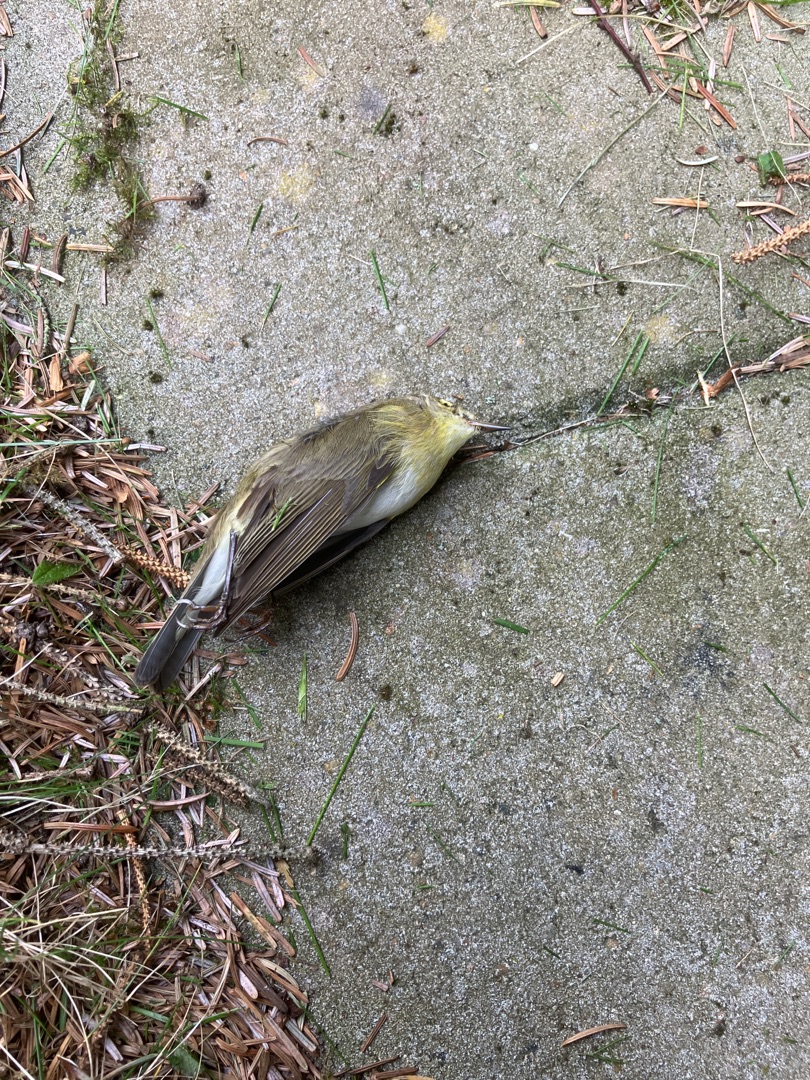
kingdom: Animalia
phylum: Chordata
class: Aves
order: Passeriformes
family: Phylloscopidae
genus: Phylloscopus
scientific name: Phylloscopus trochilus
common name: Løvsanger
